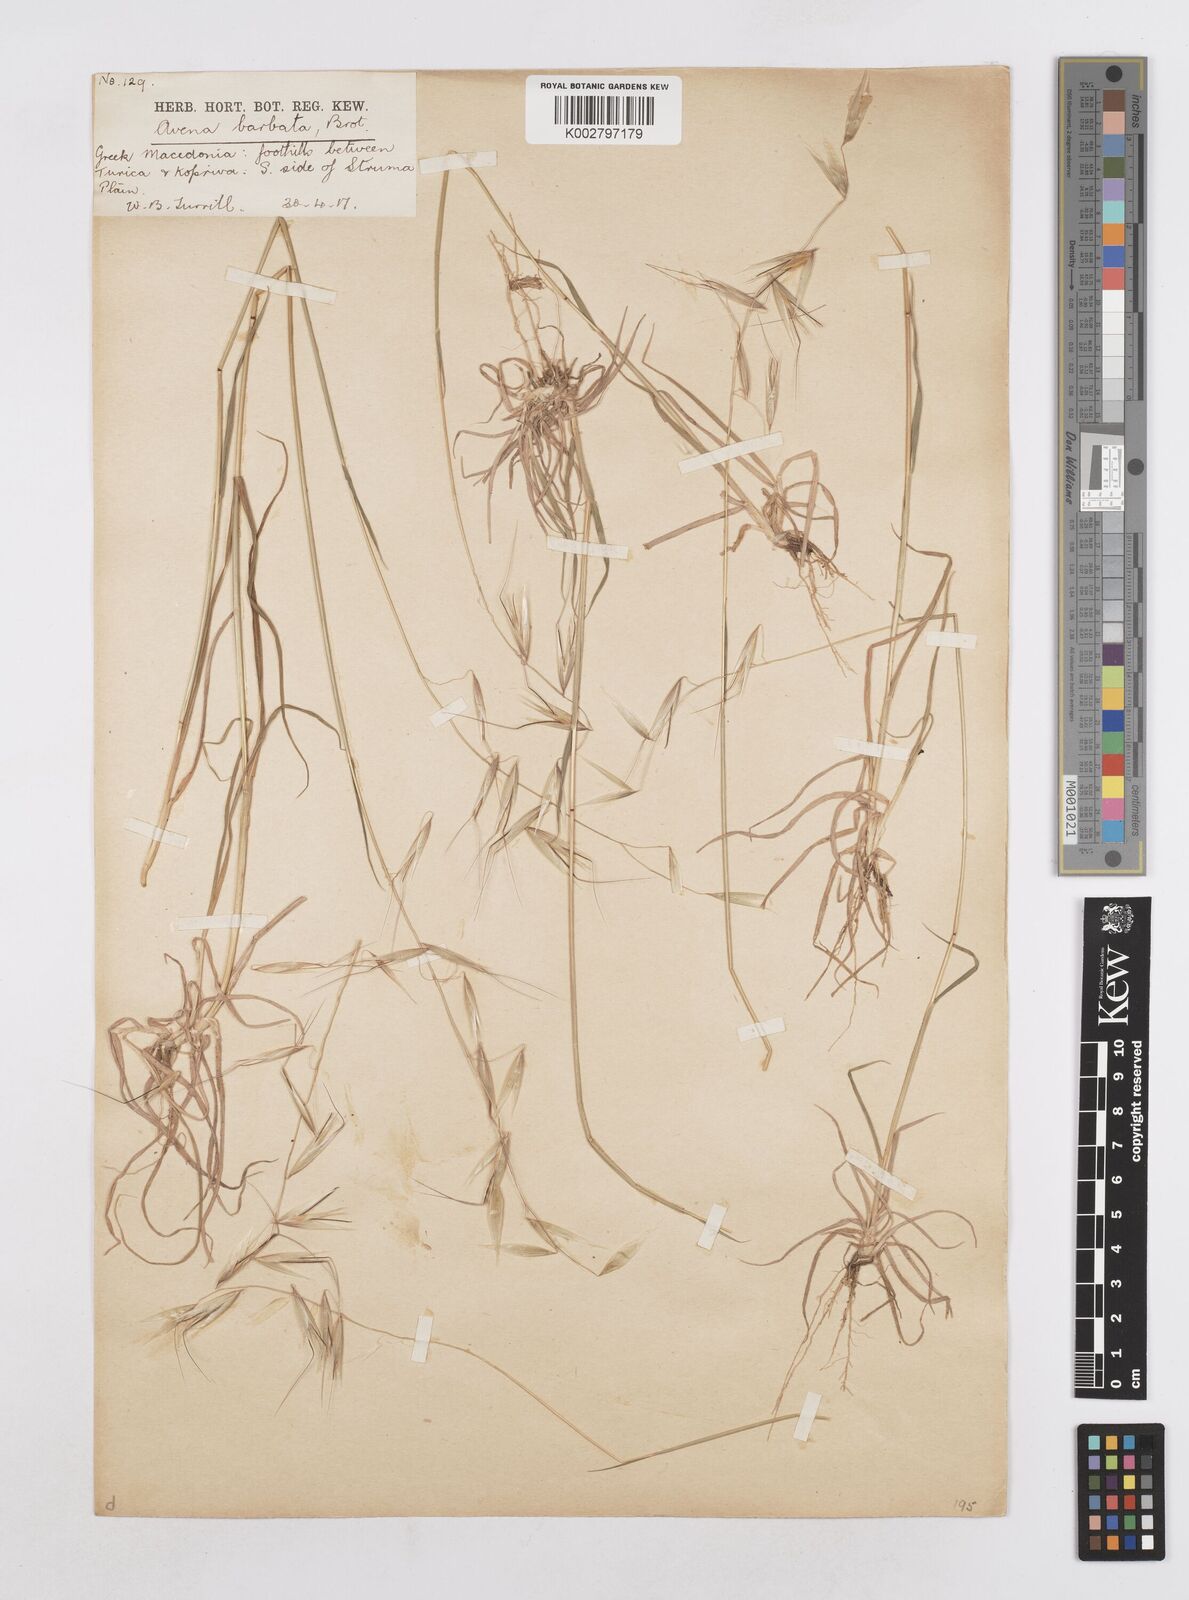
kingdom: Plantae
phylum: Tracheophyta
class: Liliopsida
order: Poales
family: Poaceae
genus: Avena
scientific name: Avena
